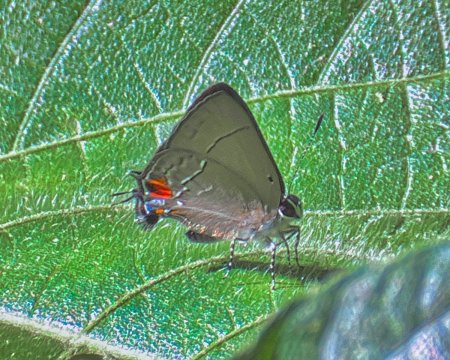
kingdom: Animalia
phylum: Arthropoda
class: Insecta
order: Lepidoptera
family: Lycaenidae
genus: Camissecla
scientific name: Camissecla
